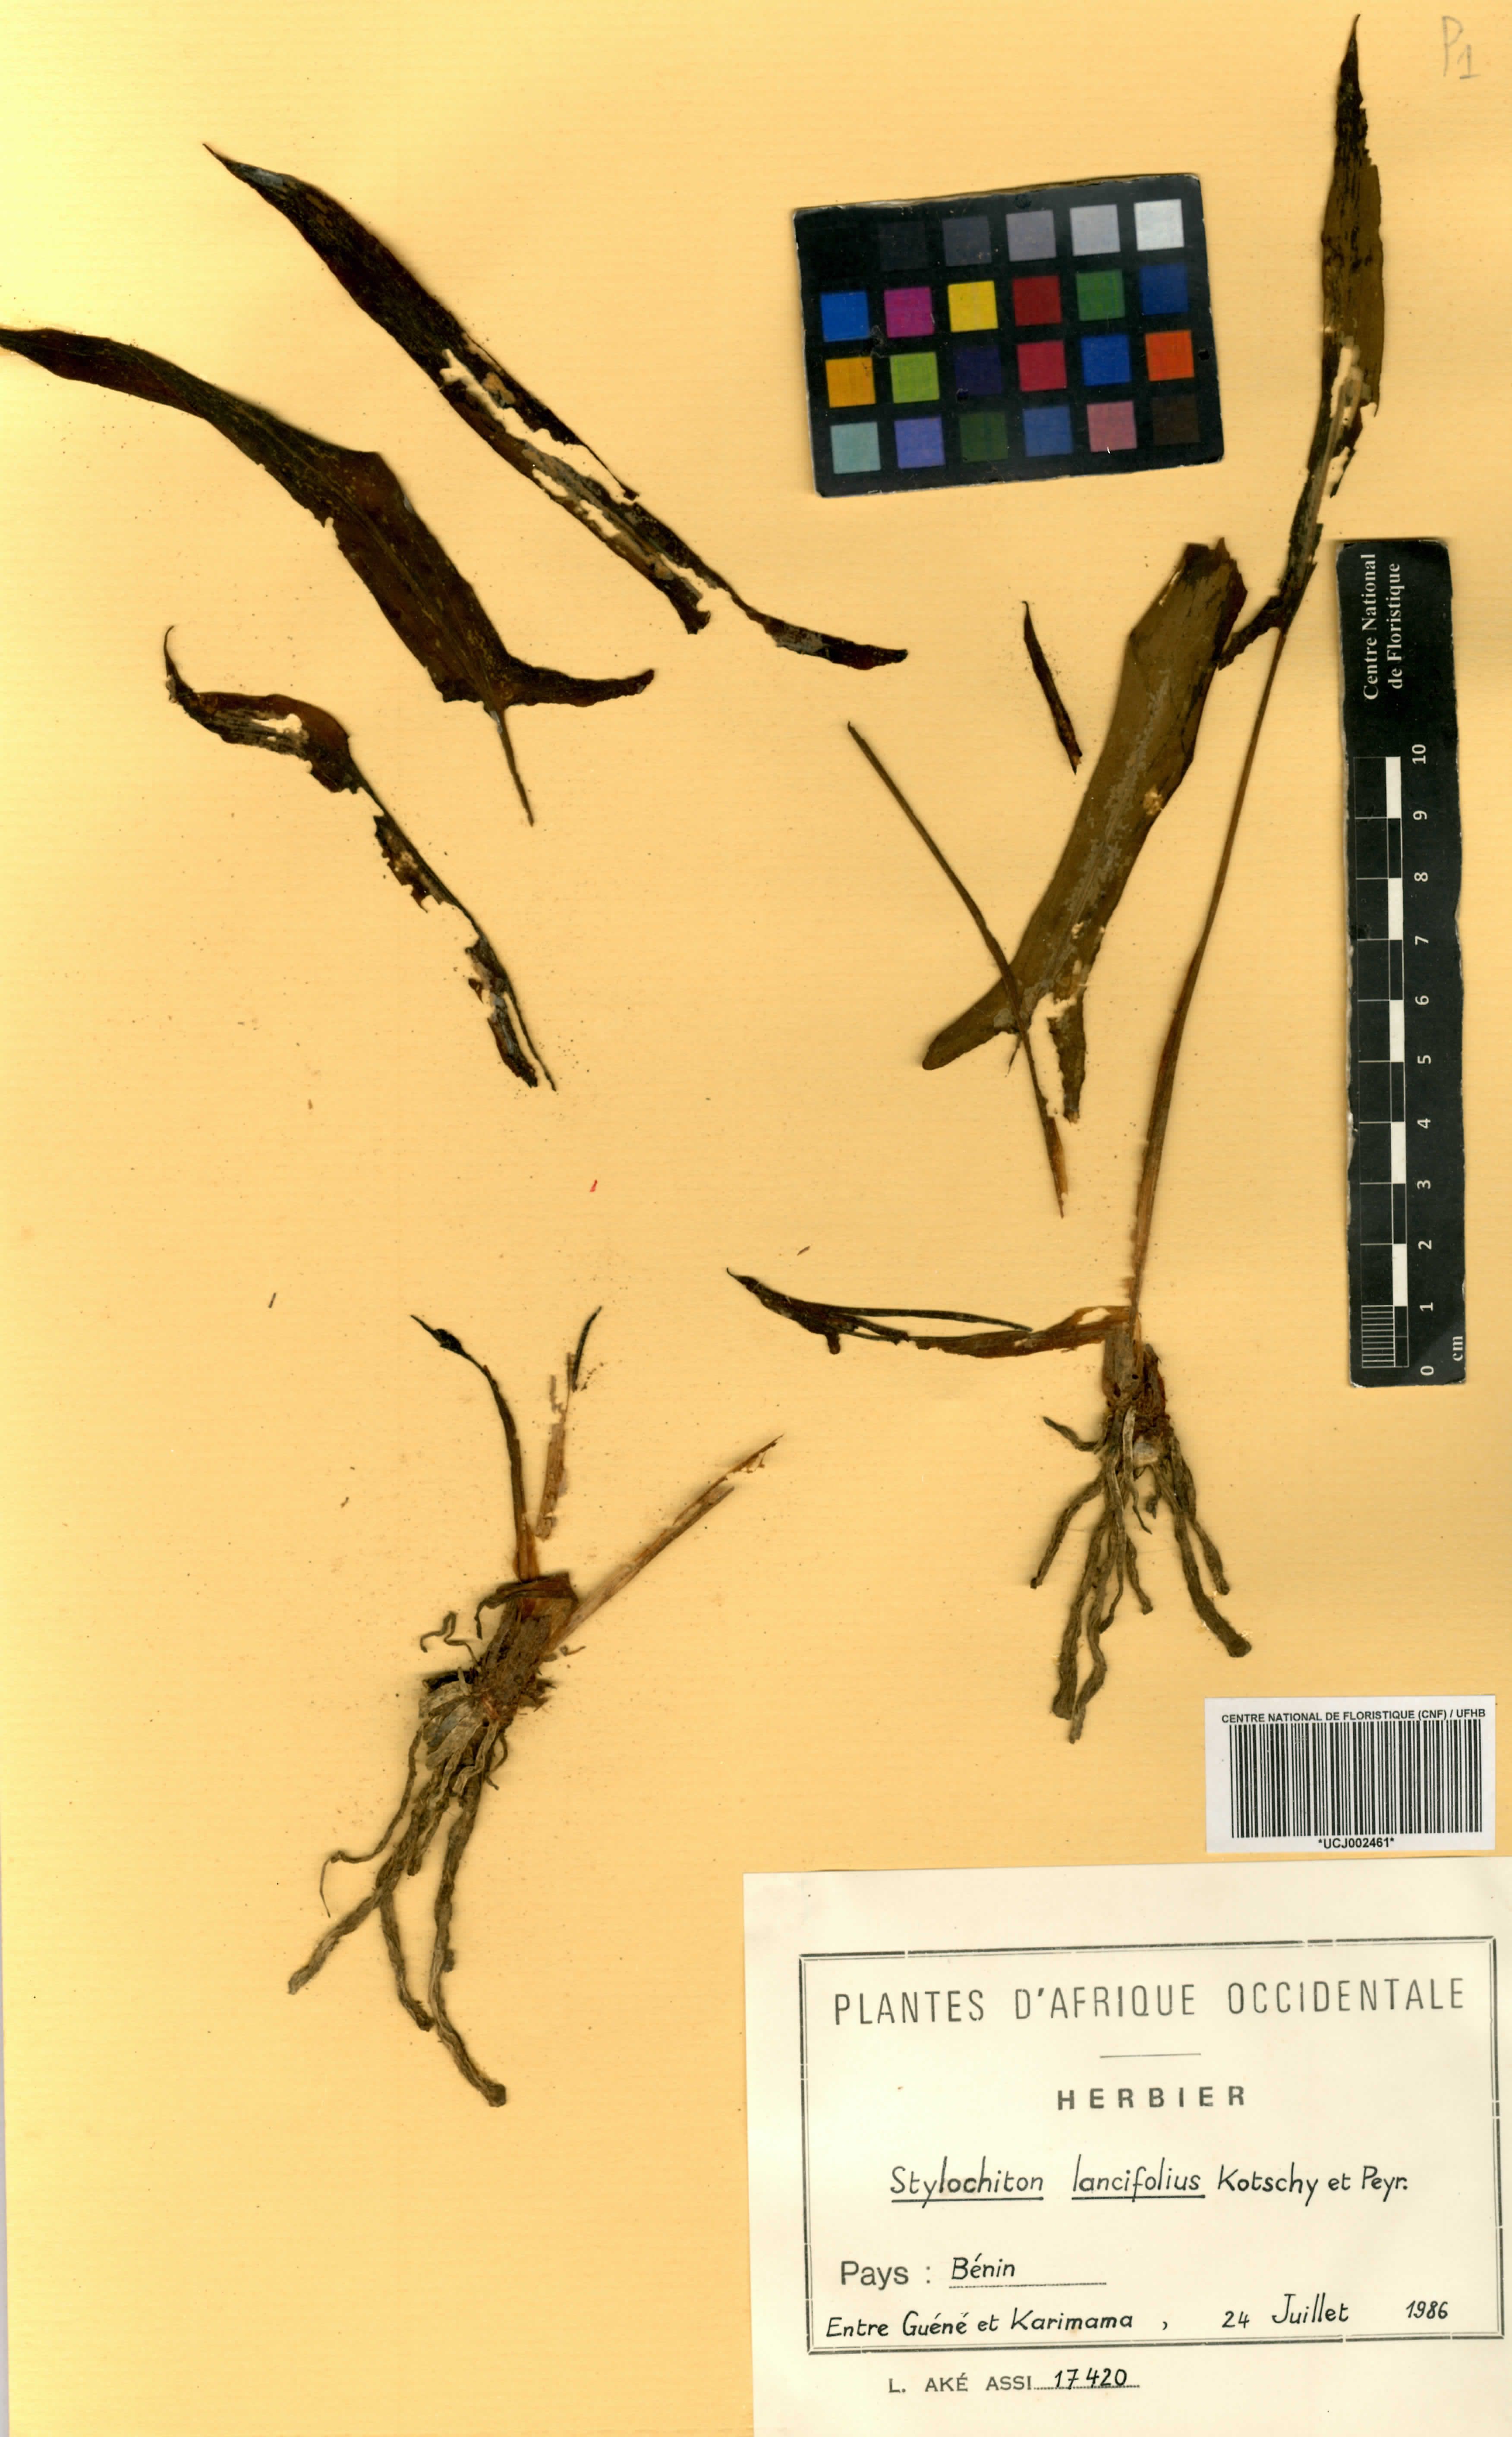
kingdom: Plantae
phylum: Tracheophyta
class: Liliopsida
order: Alismatales
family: Araceae
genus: Stylochaeton
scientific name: Stylochaeton lancifolium
